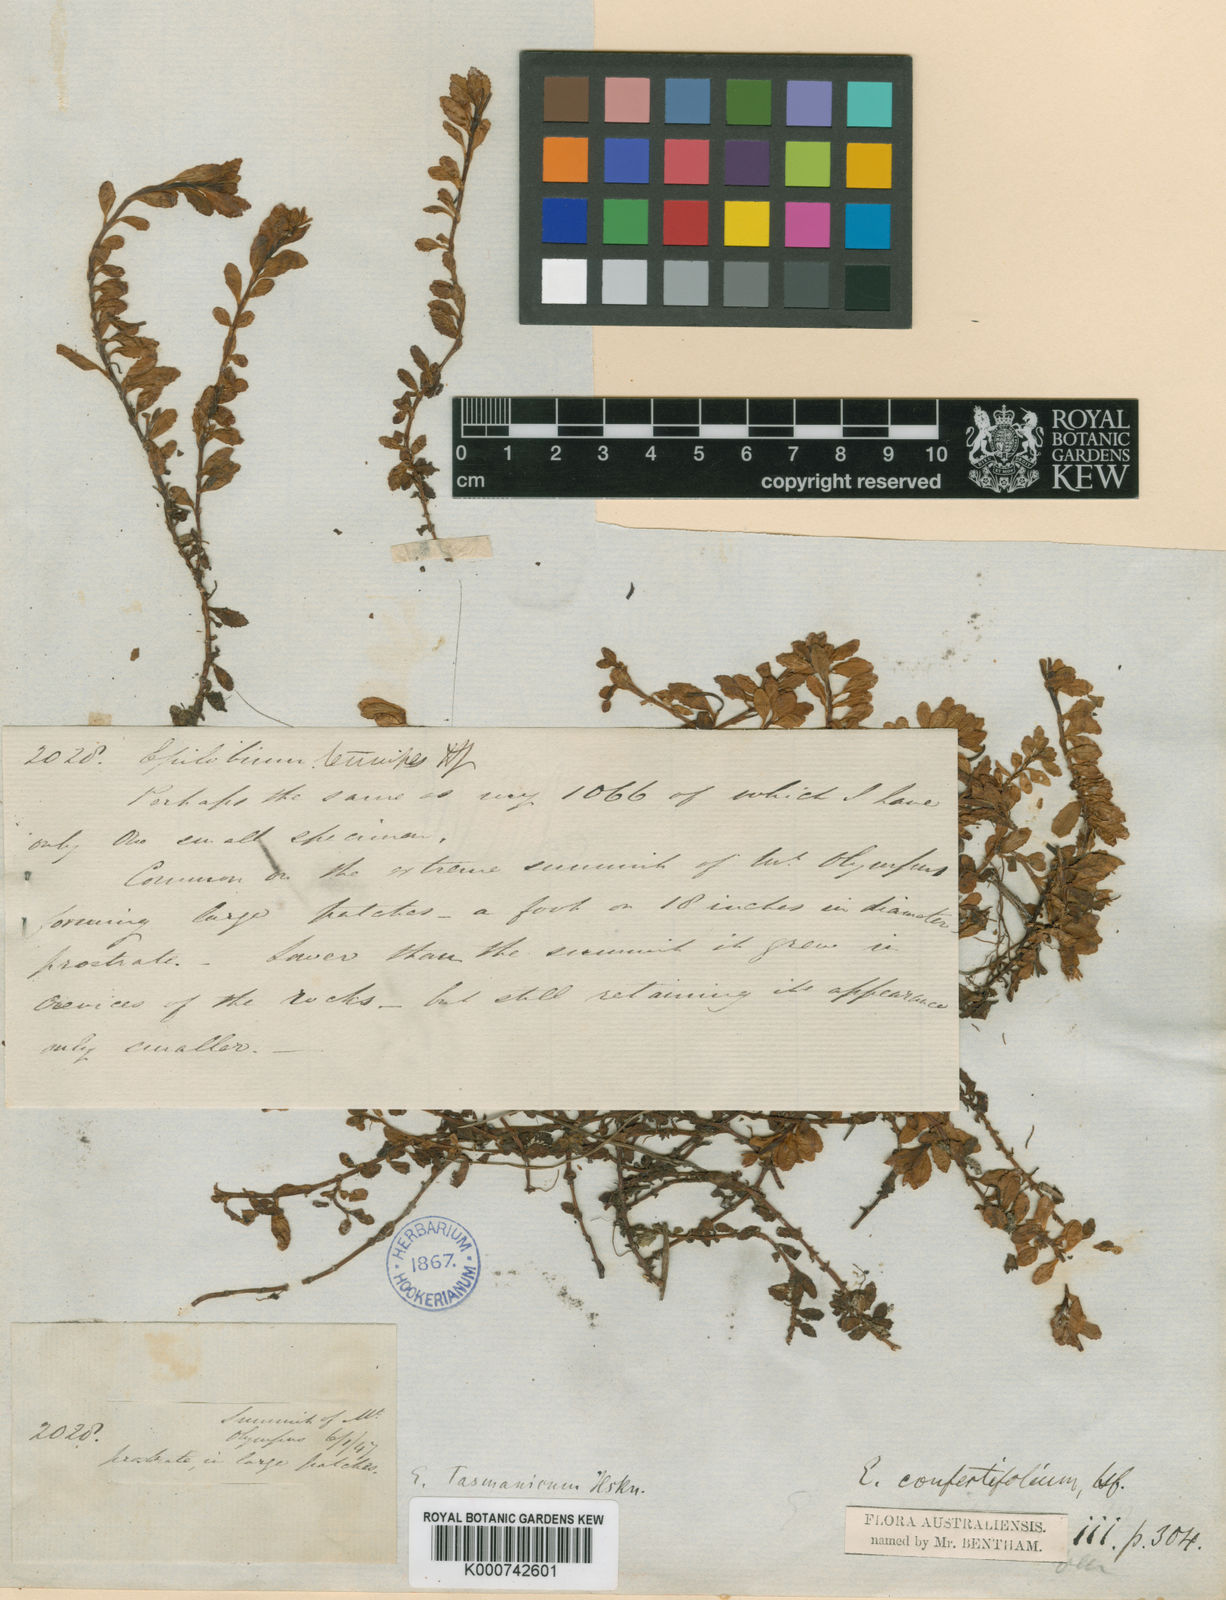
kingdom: Plantae
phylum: Tracheophyta
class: Magnoliopsida
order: Myrtales
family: Onagraceae
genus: Epilobium
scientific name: Epilobium tasmanicum
